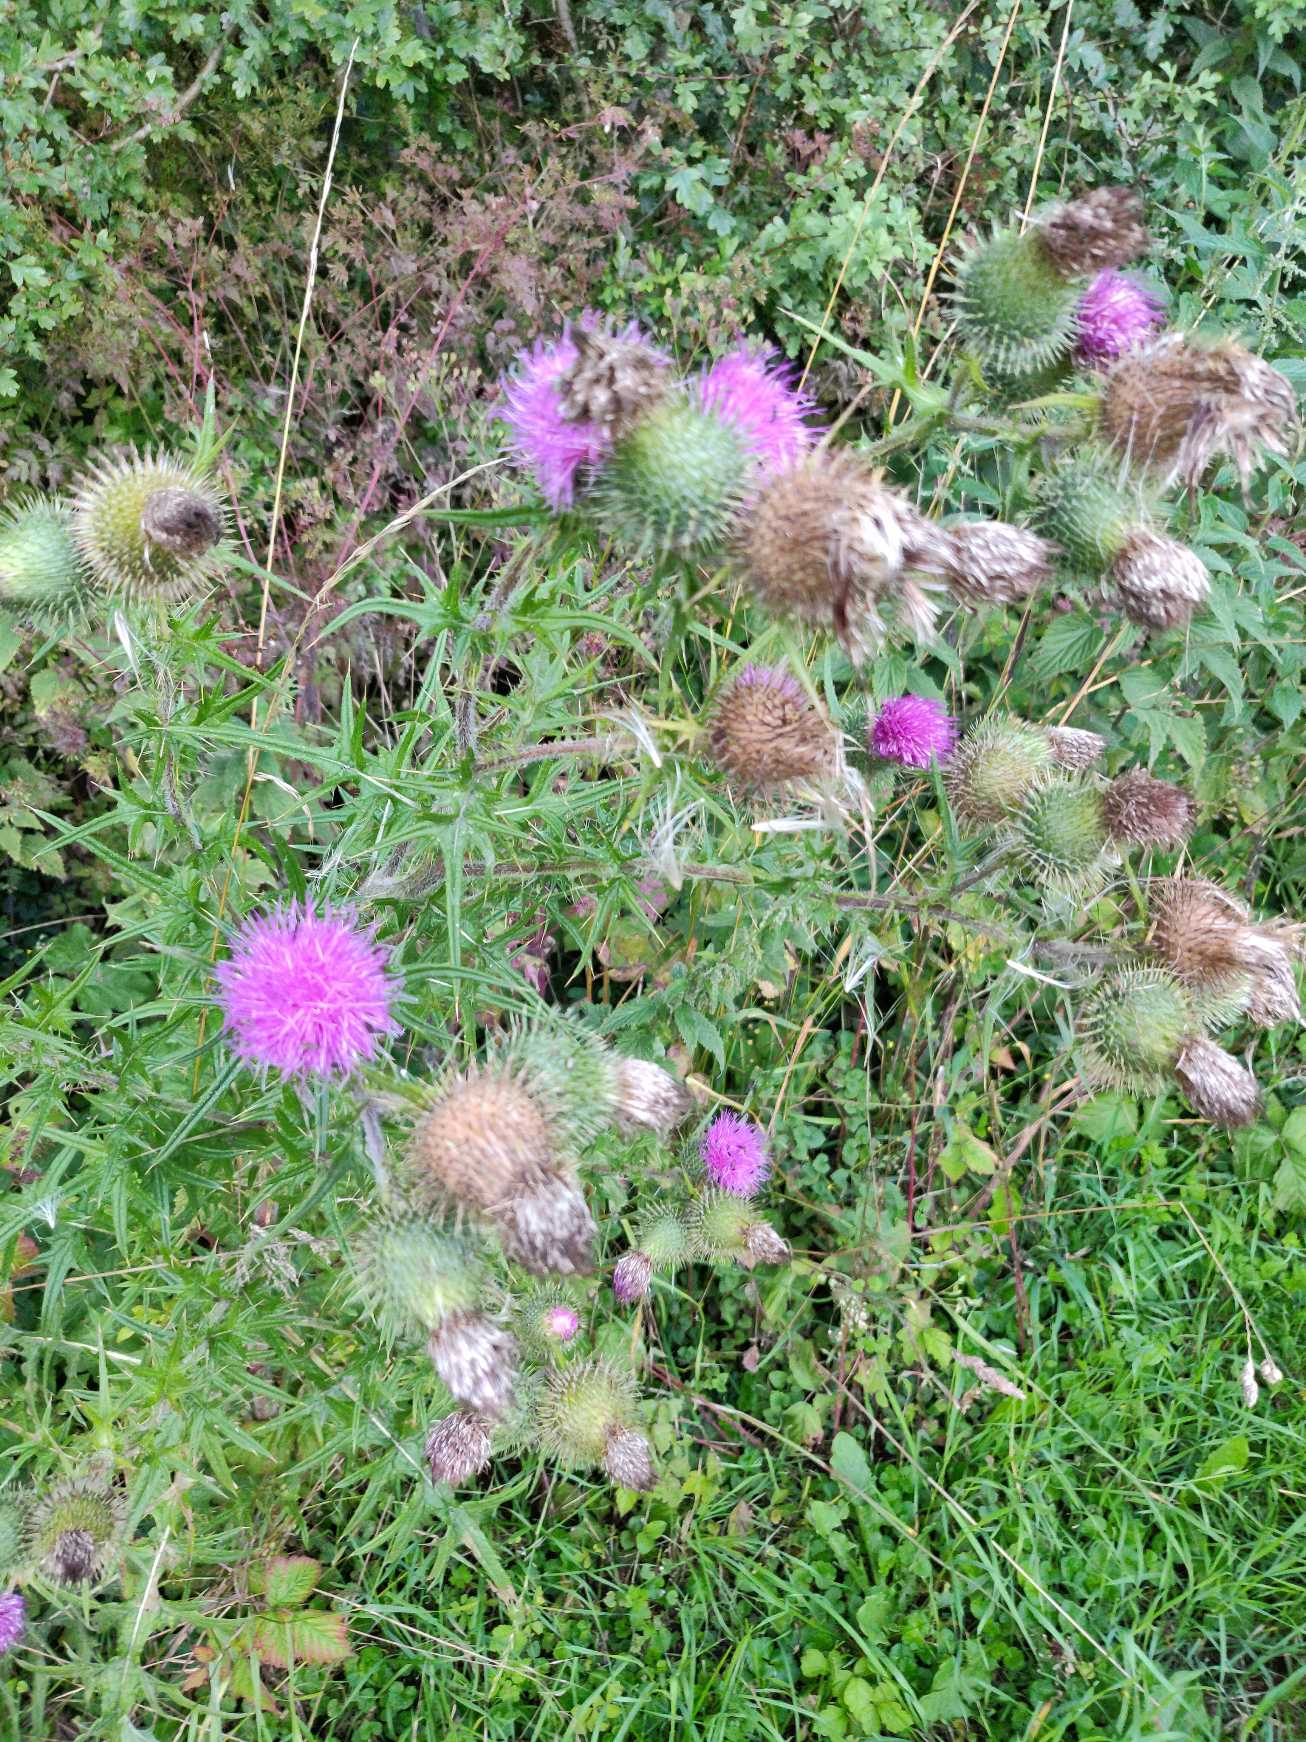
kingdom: Plantae
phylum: Tracheophyta
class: Magnoliopsida
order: Asterales
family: Asteraceae
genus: Cirsium
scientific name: Cirsium vulgare
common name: Horse-tidsel
